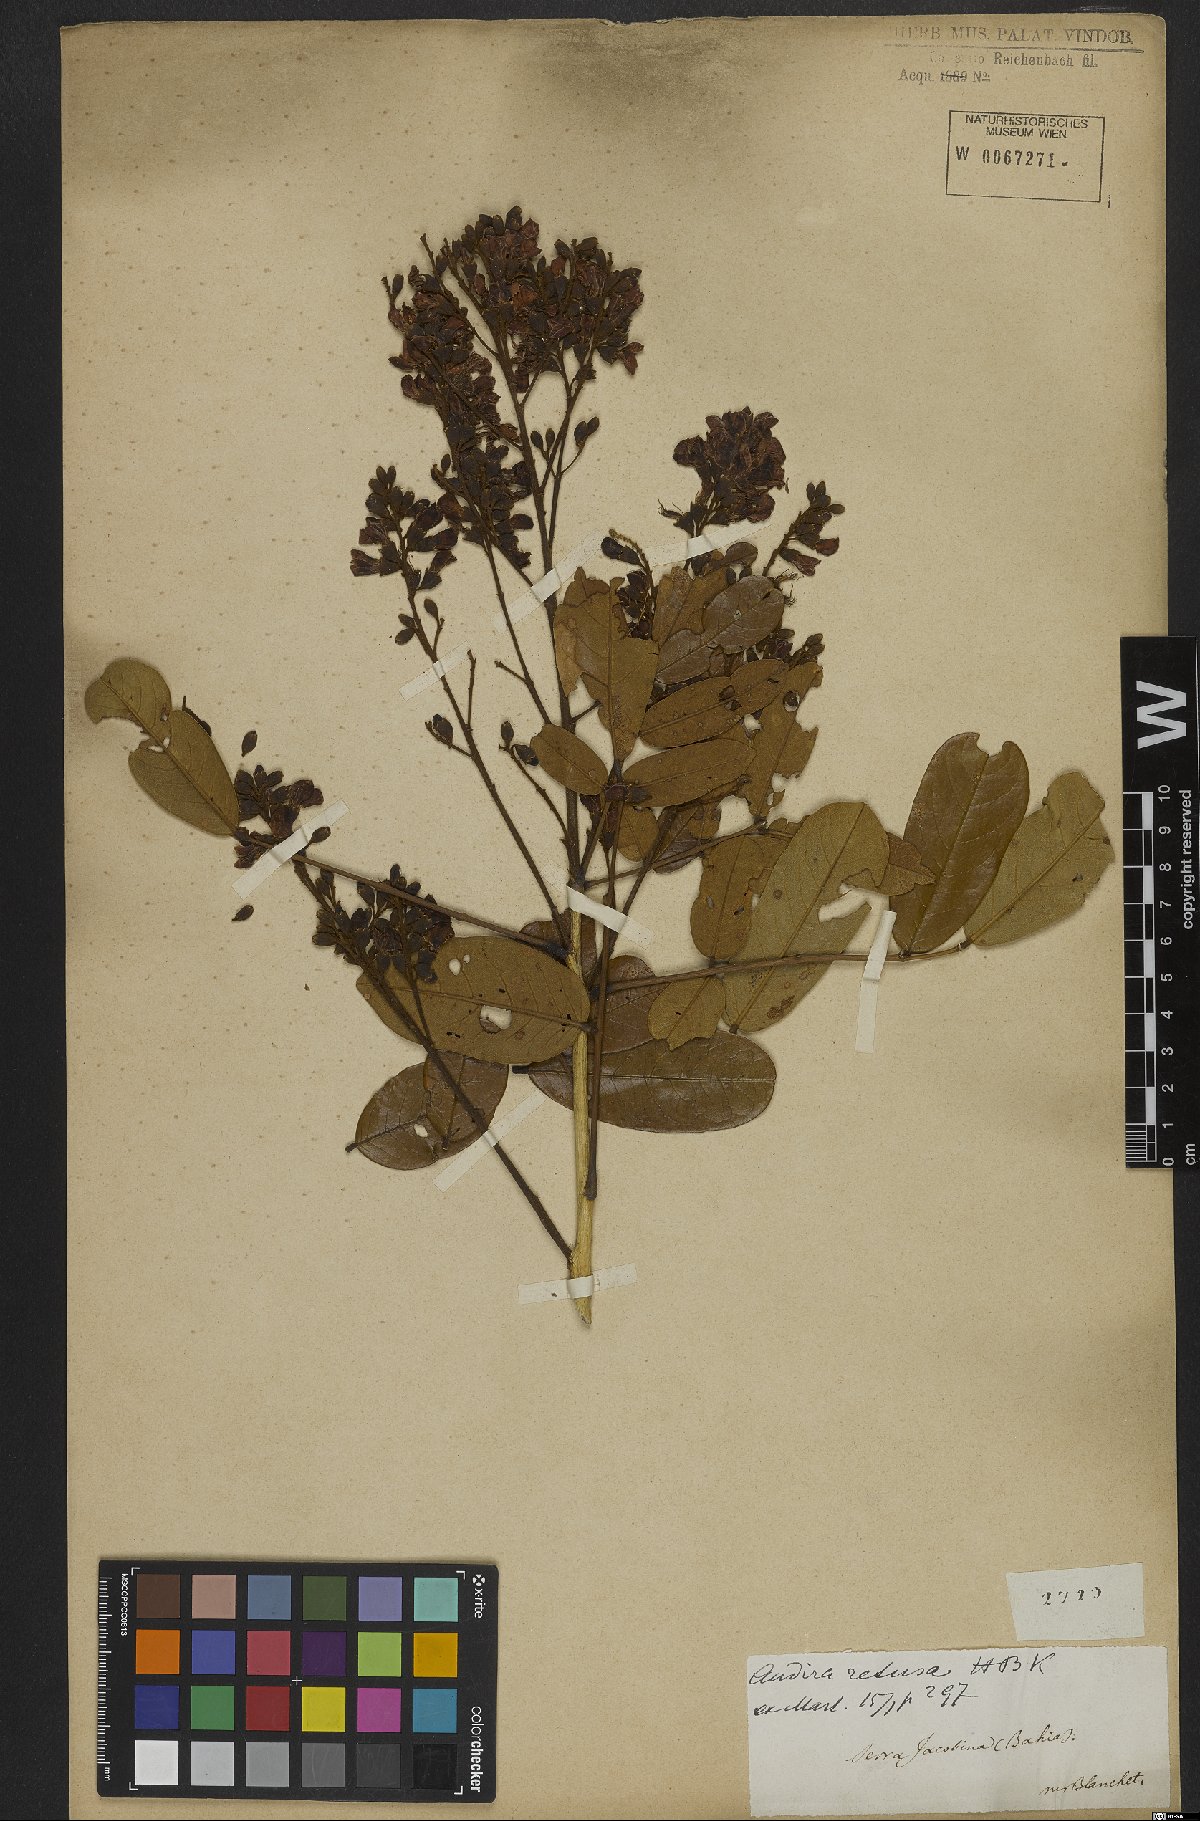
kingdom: Plantae
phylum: Tracheophyta
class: Magnoliopsida
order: Fabales
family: Fabaceae
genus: Andira
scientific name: Andira surinamensis
